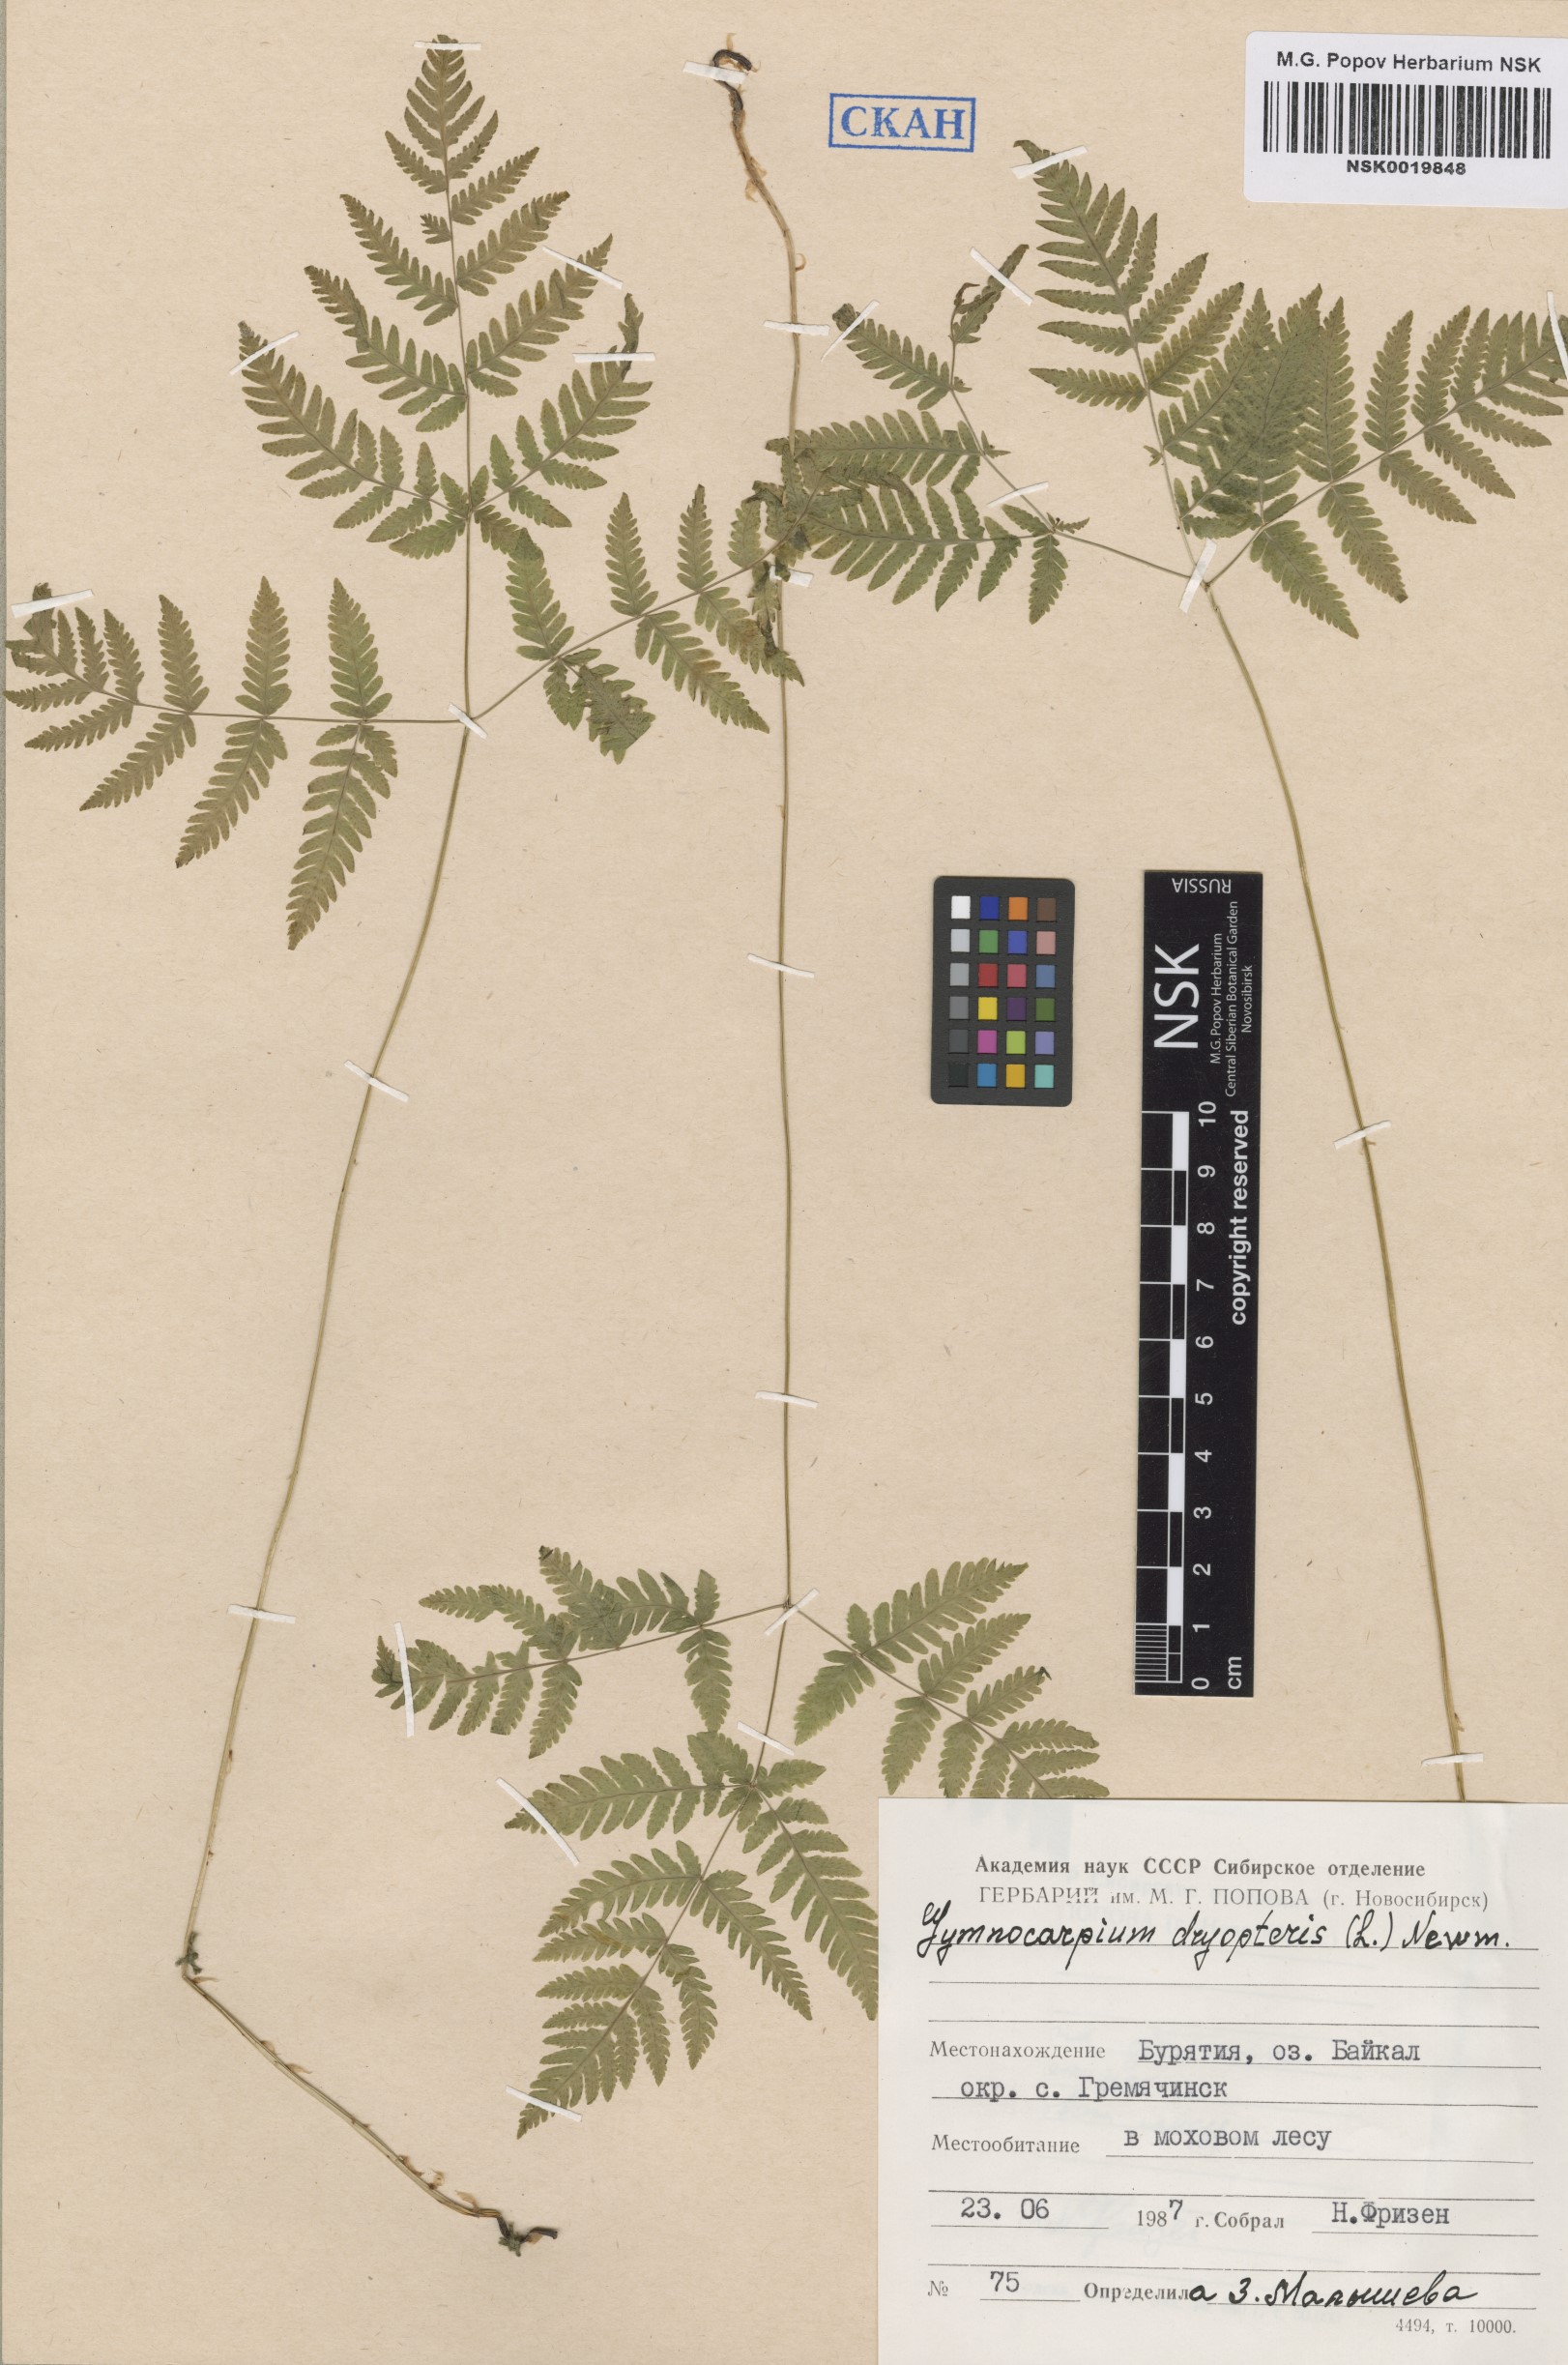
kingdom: Plantae
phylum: Tracheophyta
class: Polypodiopsida
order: Polypodiales
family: Cystopteridaceae
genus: Gymnocarpium
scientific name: Gymnocarpium dryopteris
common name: Oak fern
